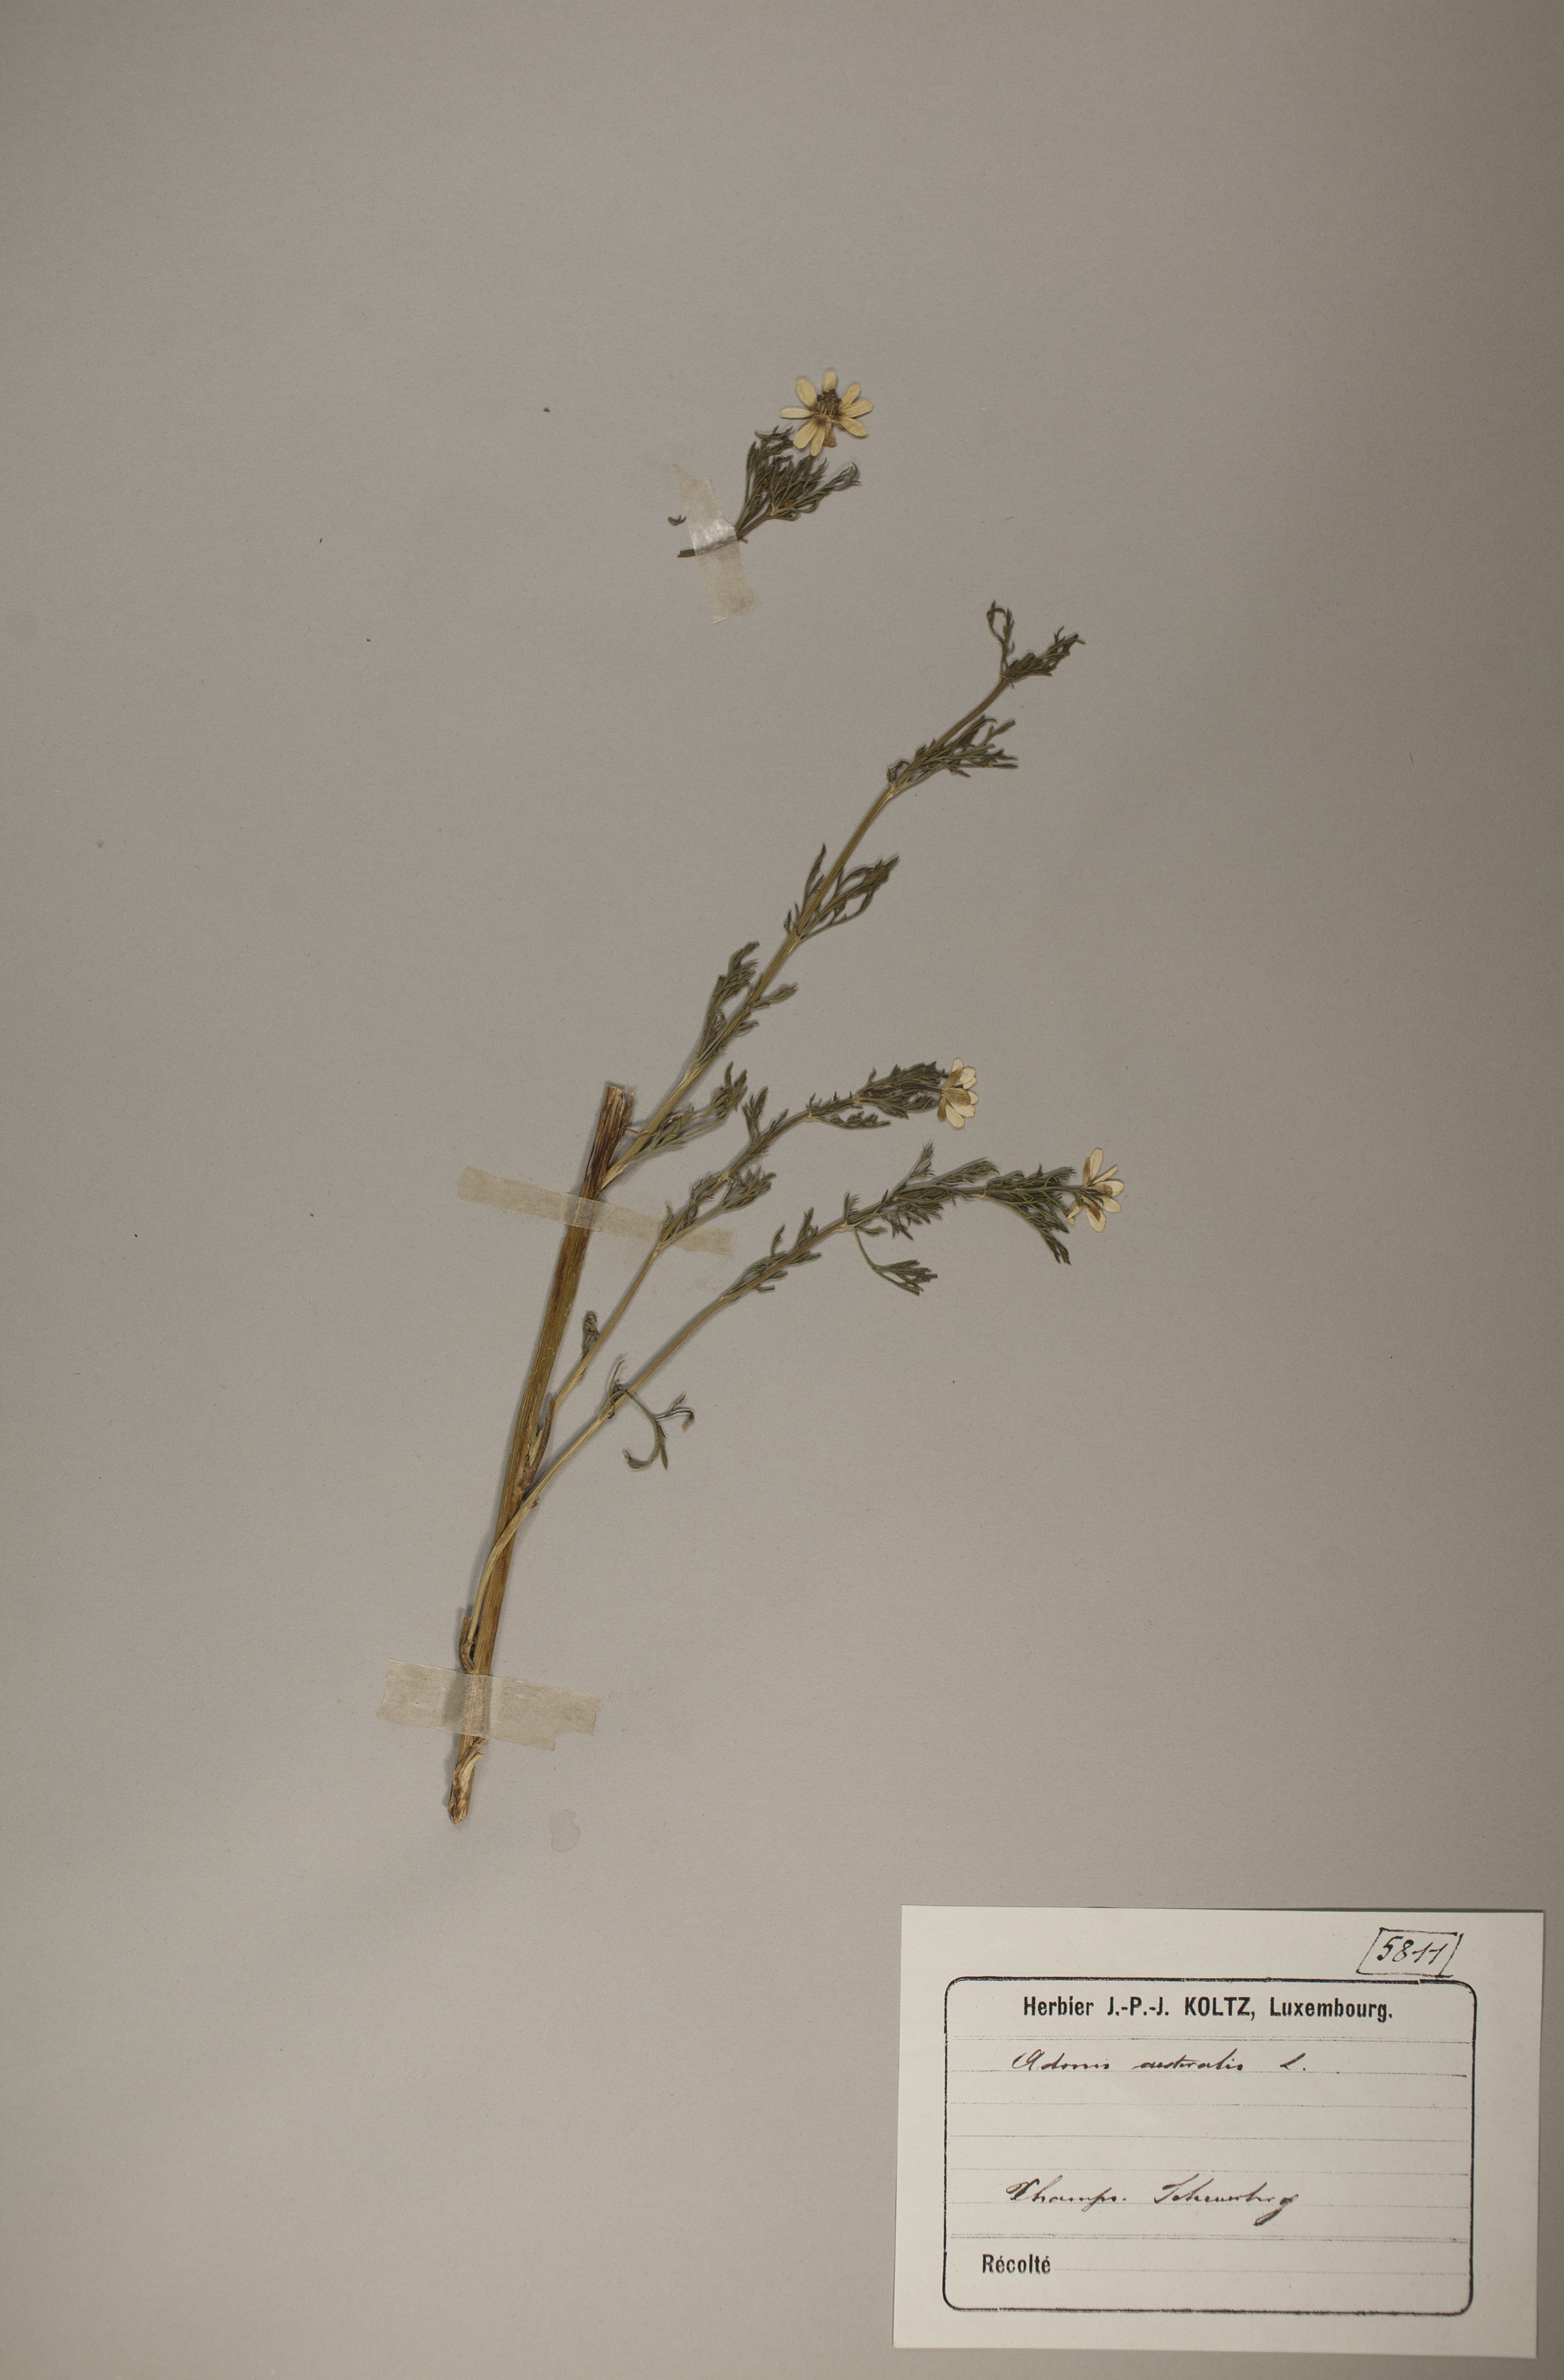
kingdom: Plantae
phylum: Tracheophyta
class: Magnoliopsida
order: Ranunculales
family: Ranunculaceae
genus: Adonis
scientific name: Adonis aestivalis
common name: Summer pheasant's-eye
